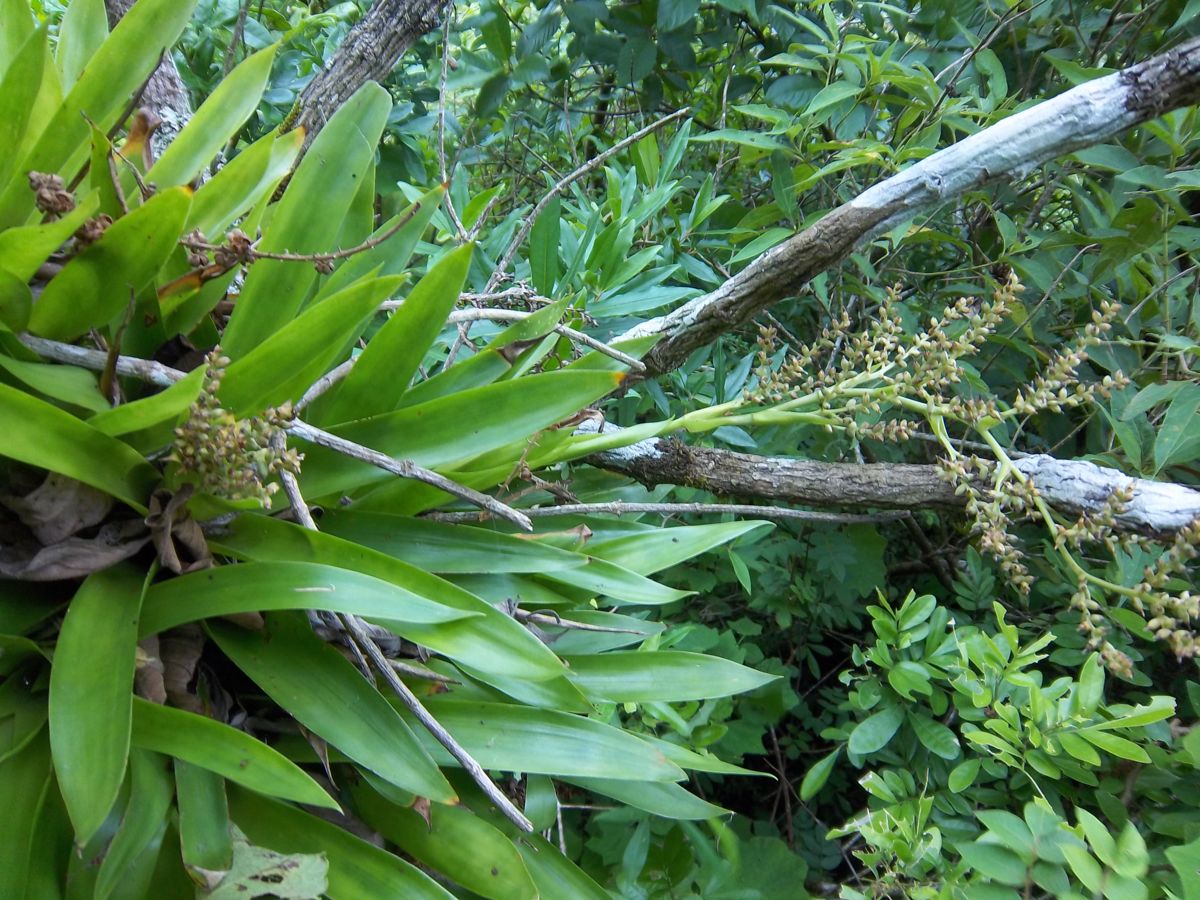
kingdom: Plantae
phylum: Tracheophyta
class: Liliopsida
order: Poales
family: Bromeliaceae
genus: Catopsis
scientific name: Catopsis paniculata
